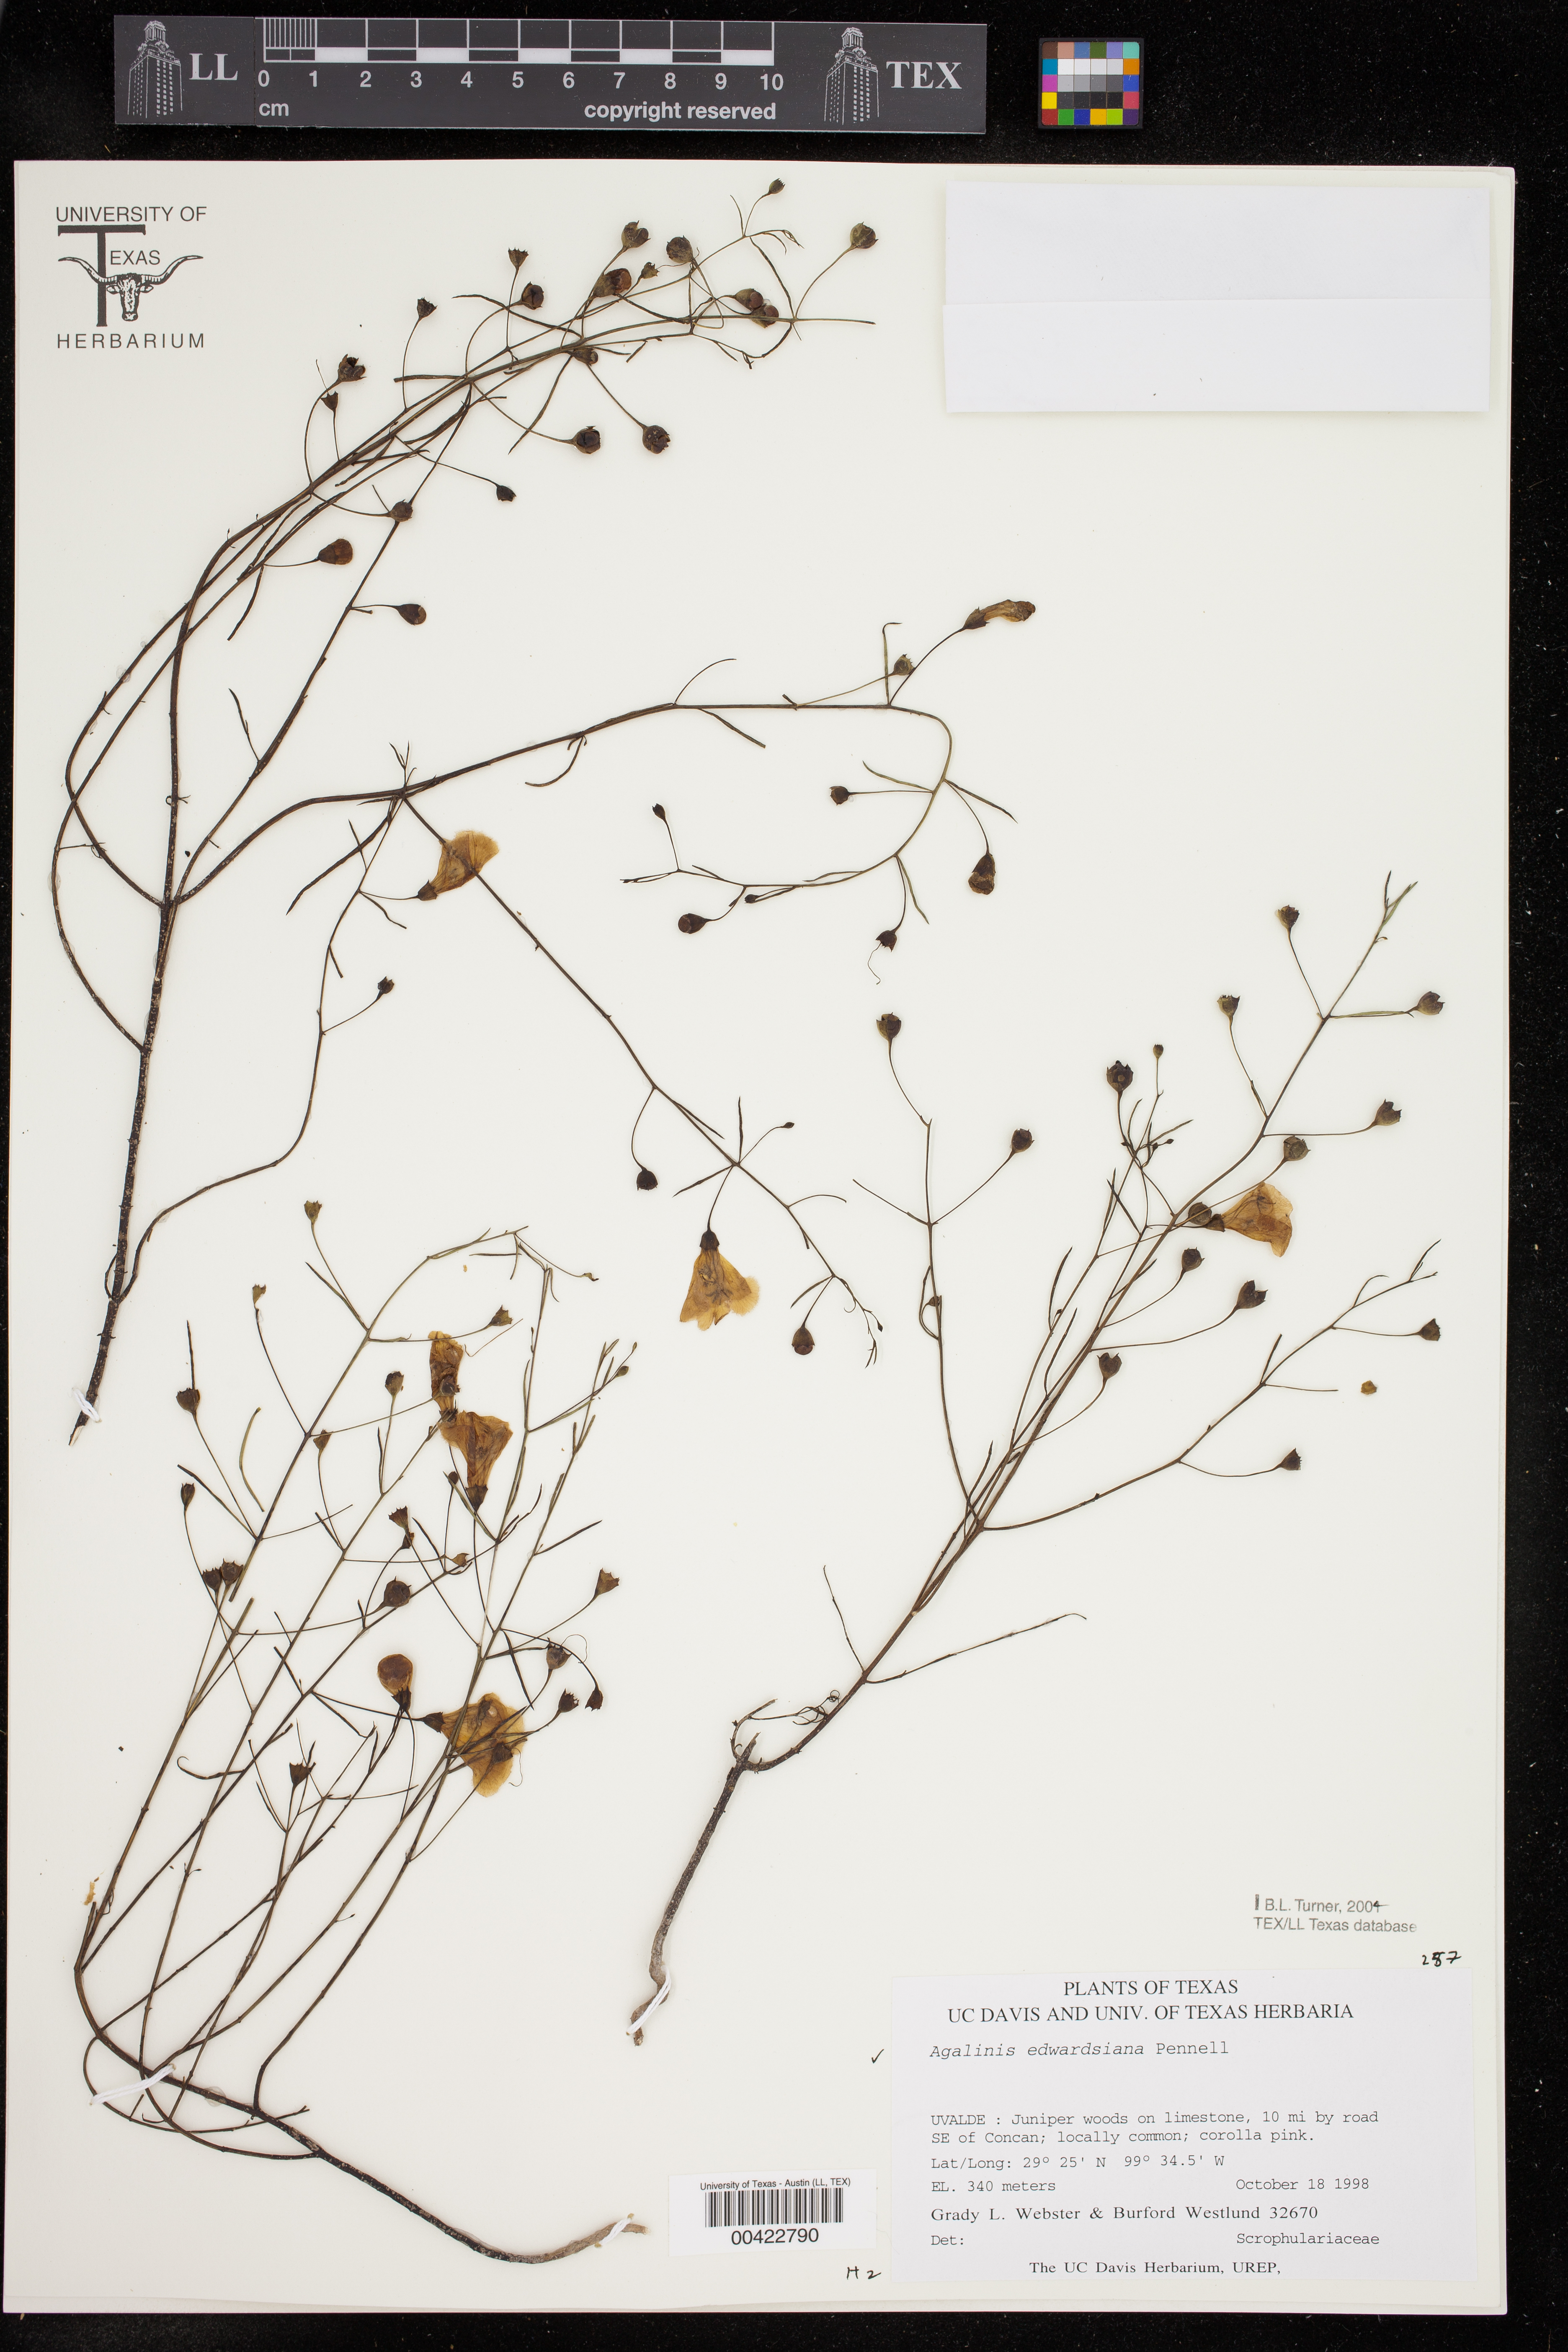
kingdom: Plantae
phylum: Tracheophyta
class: Magnoliopsida
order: Lamiales
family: Orobanchaceae
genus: Agalinis
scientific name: Agalinis edwardsiana
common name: Plateau-gerardia
